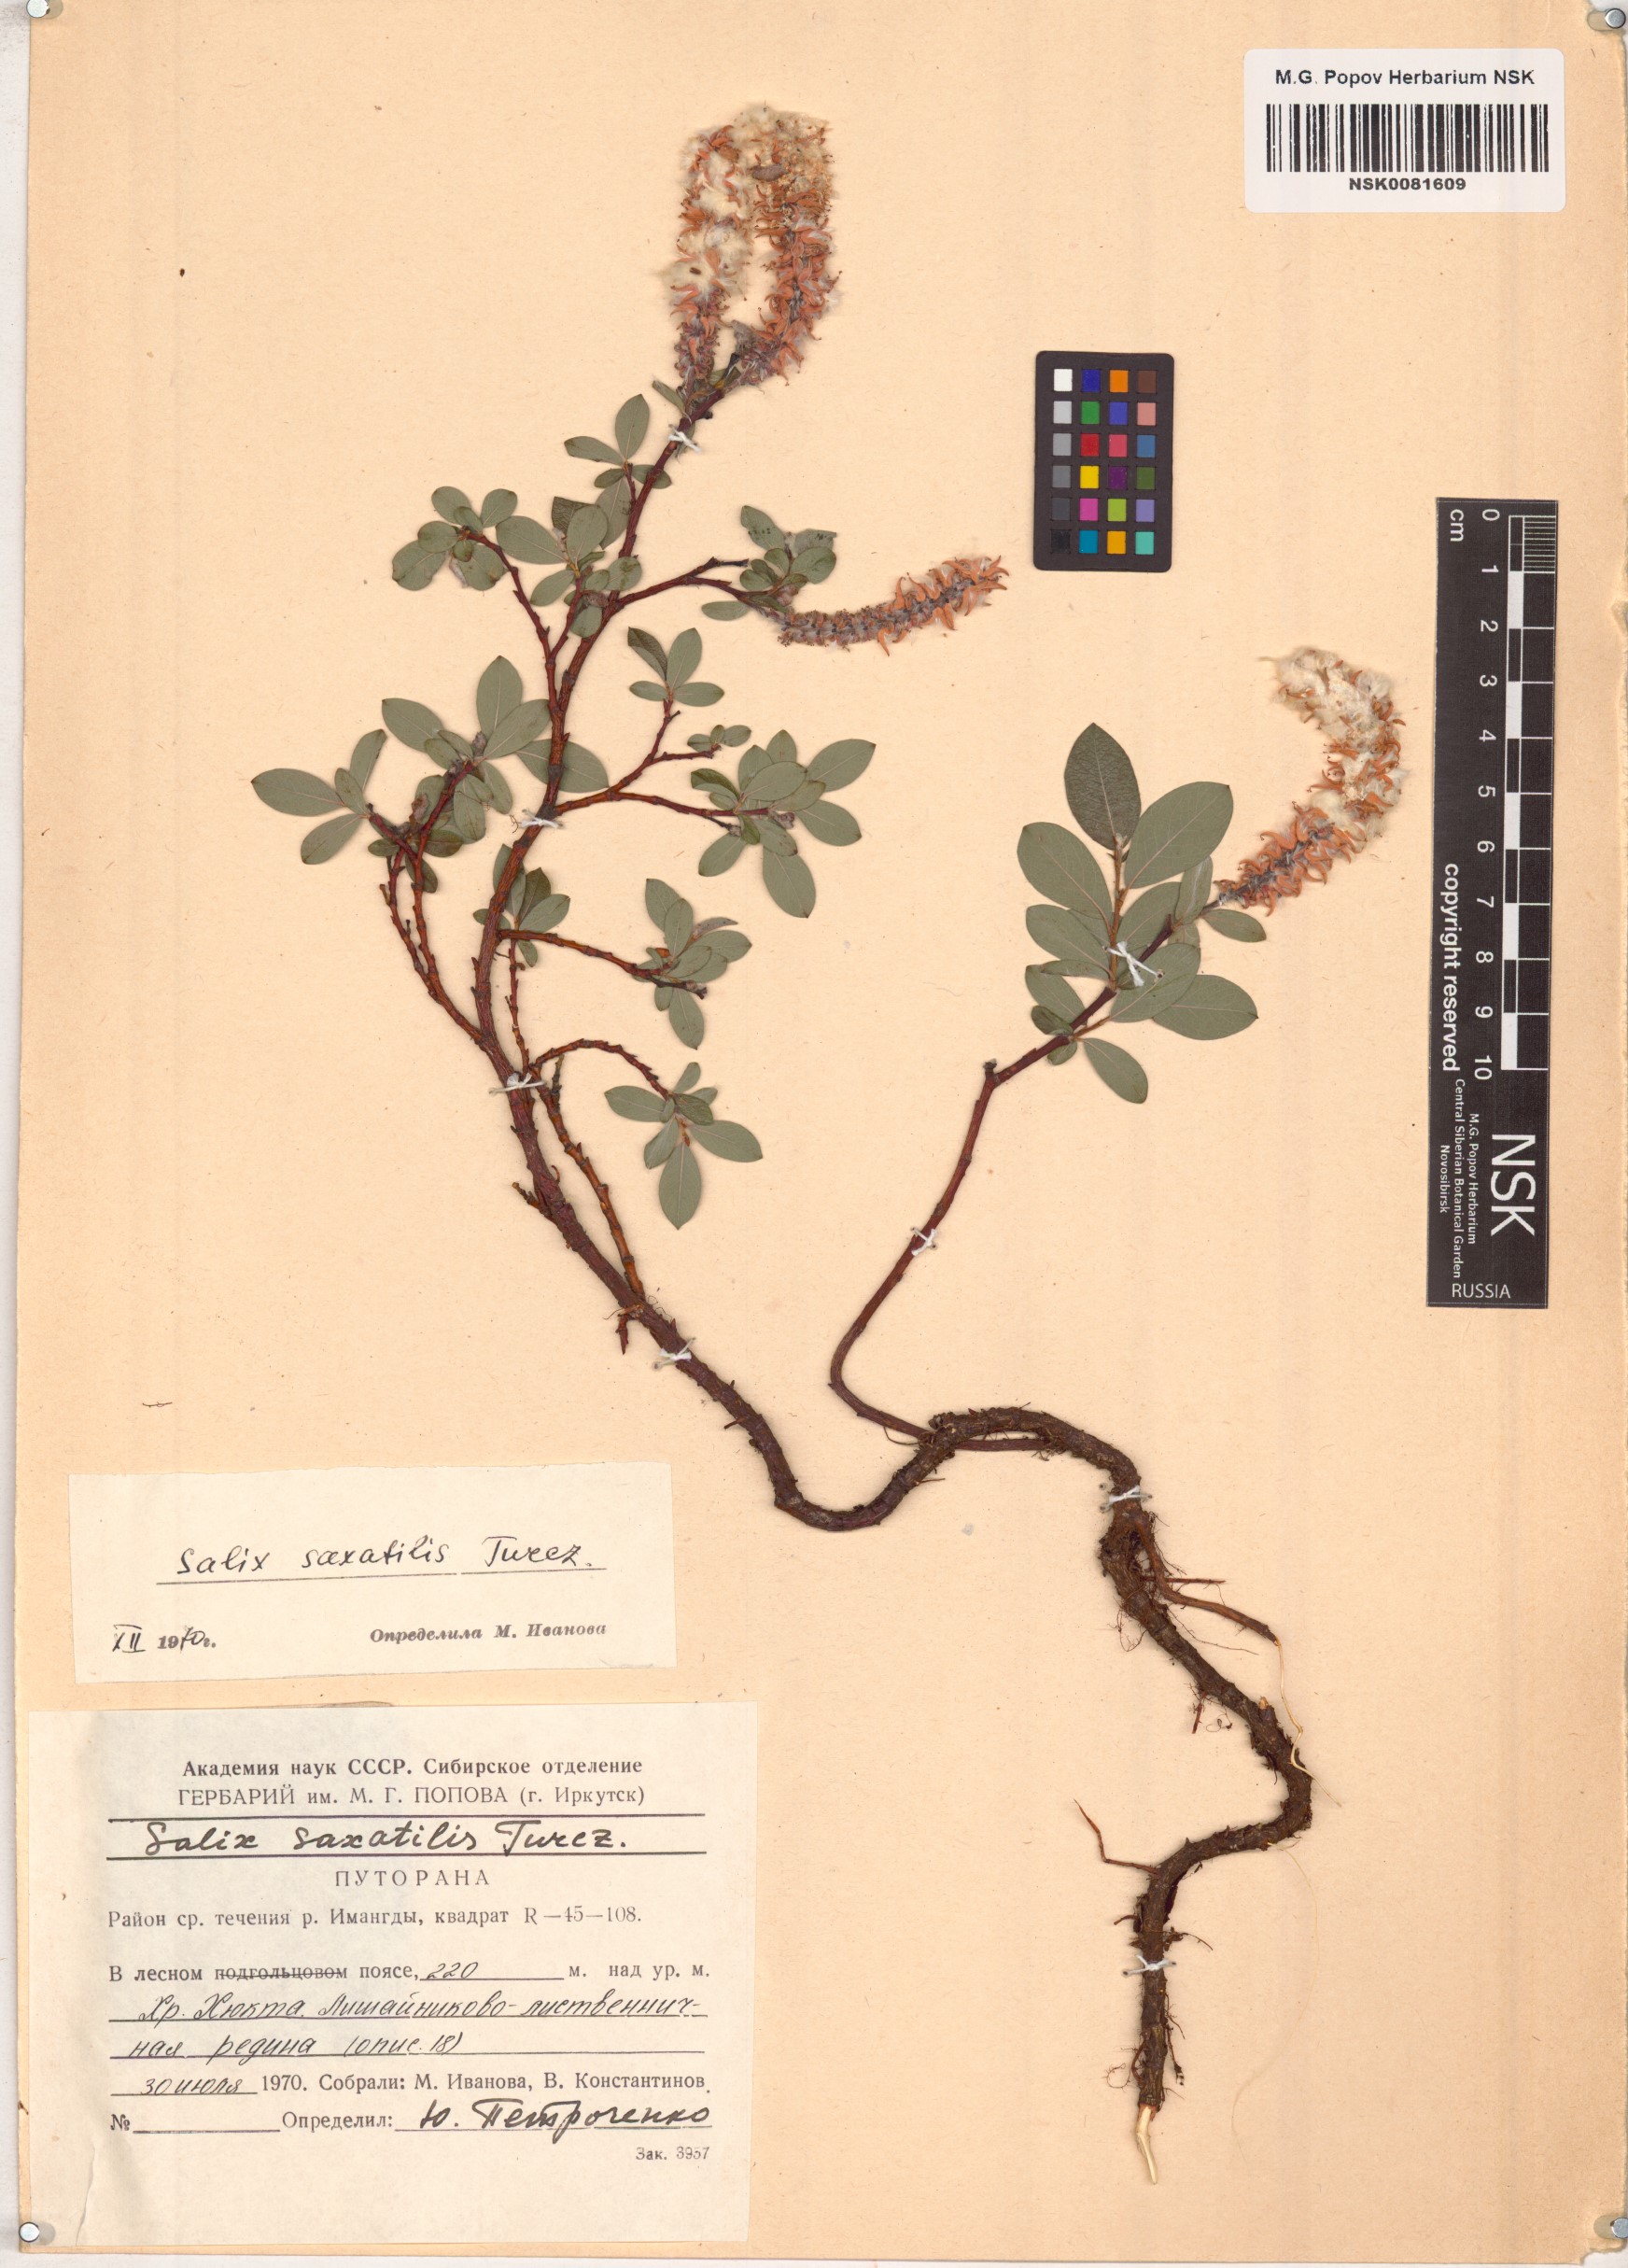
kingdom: Plantae
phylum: Tracheophyta
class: Magnoliopsida
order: Malpighiales
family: Salicaceae
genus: Salix
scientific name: Salix saxatilis
